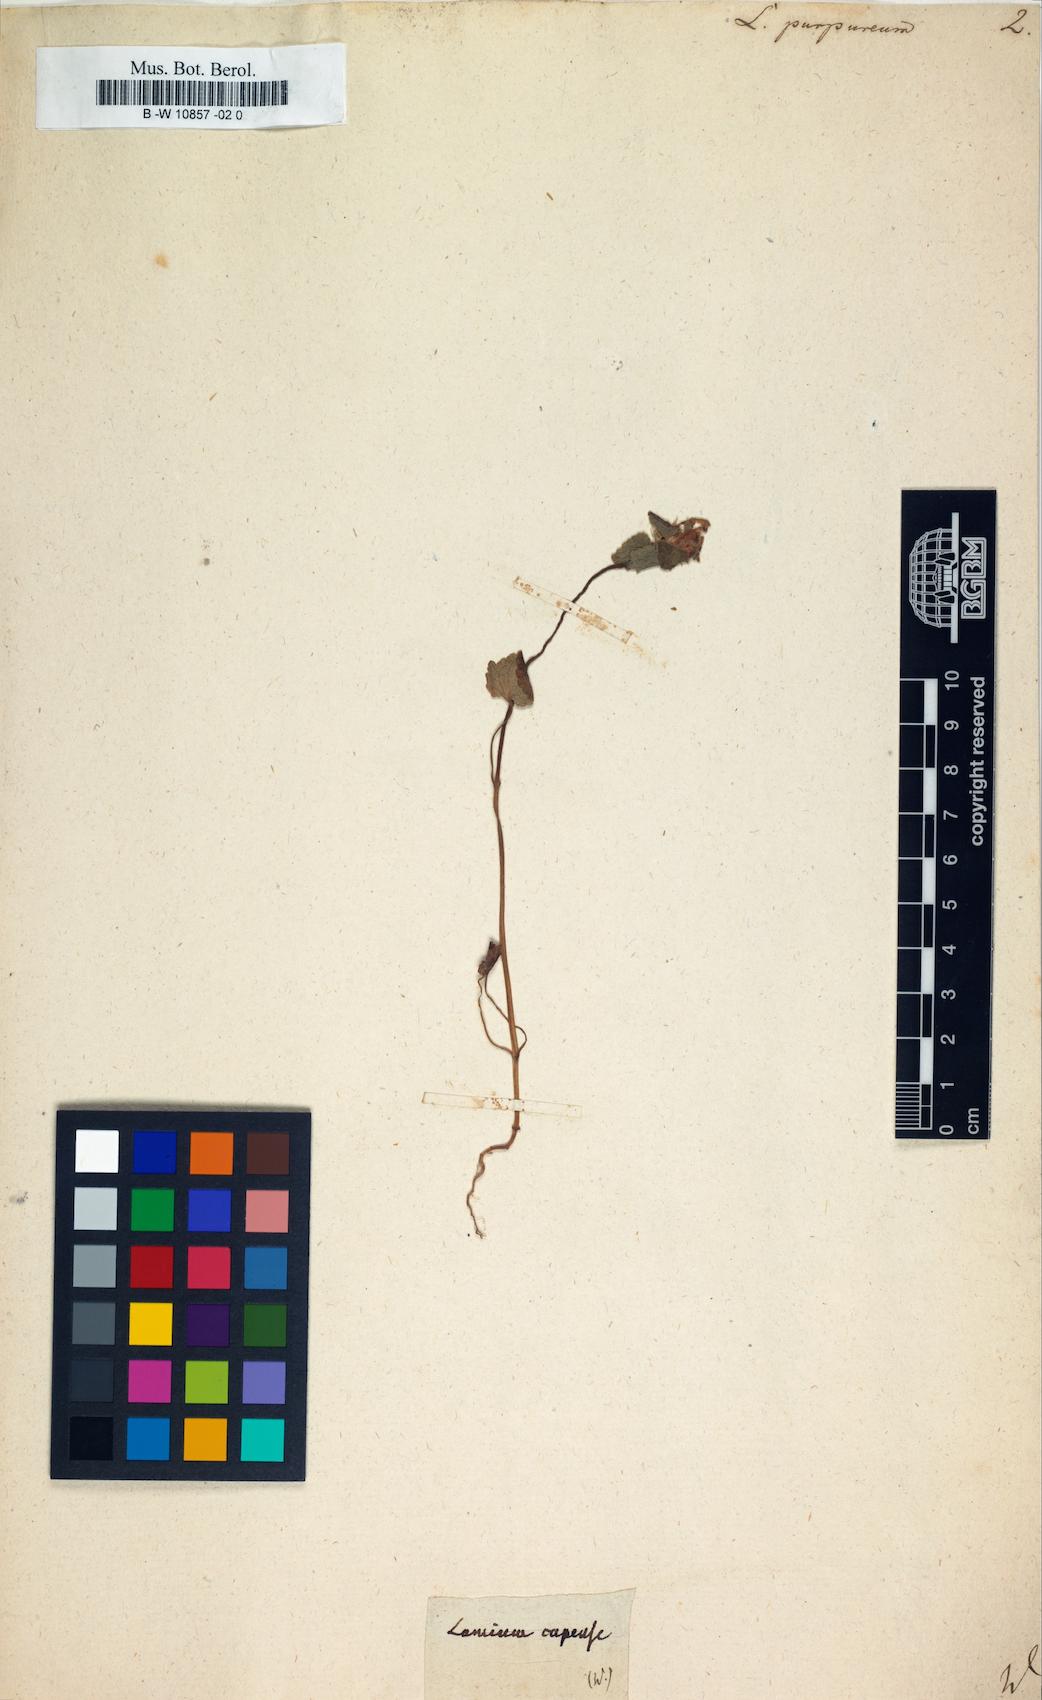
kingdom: Plantae
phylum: Tracheophyta
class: Magnoliopsida
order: Lamiales
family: Lamiaceae
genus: Lamium
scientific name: Lamium purpureum
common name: Red dead-nettle
